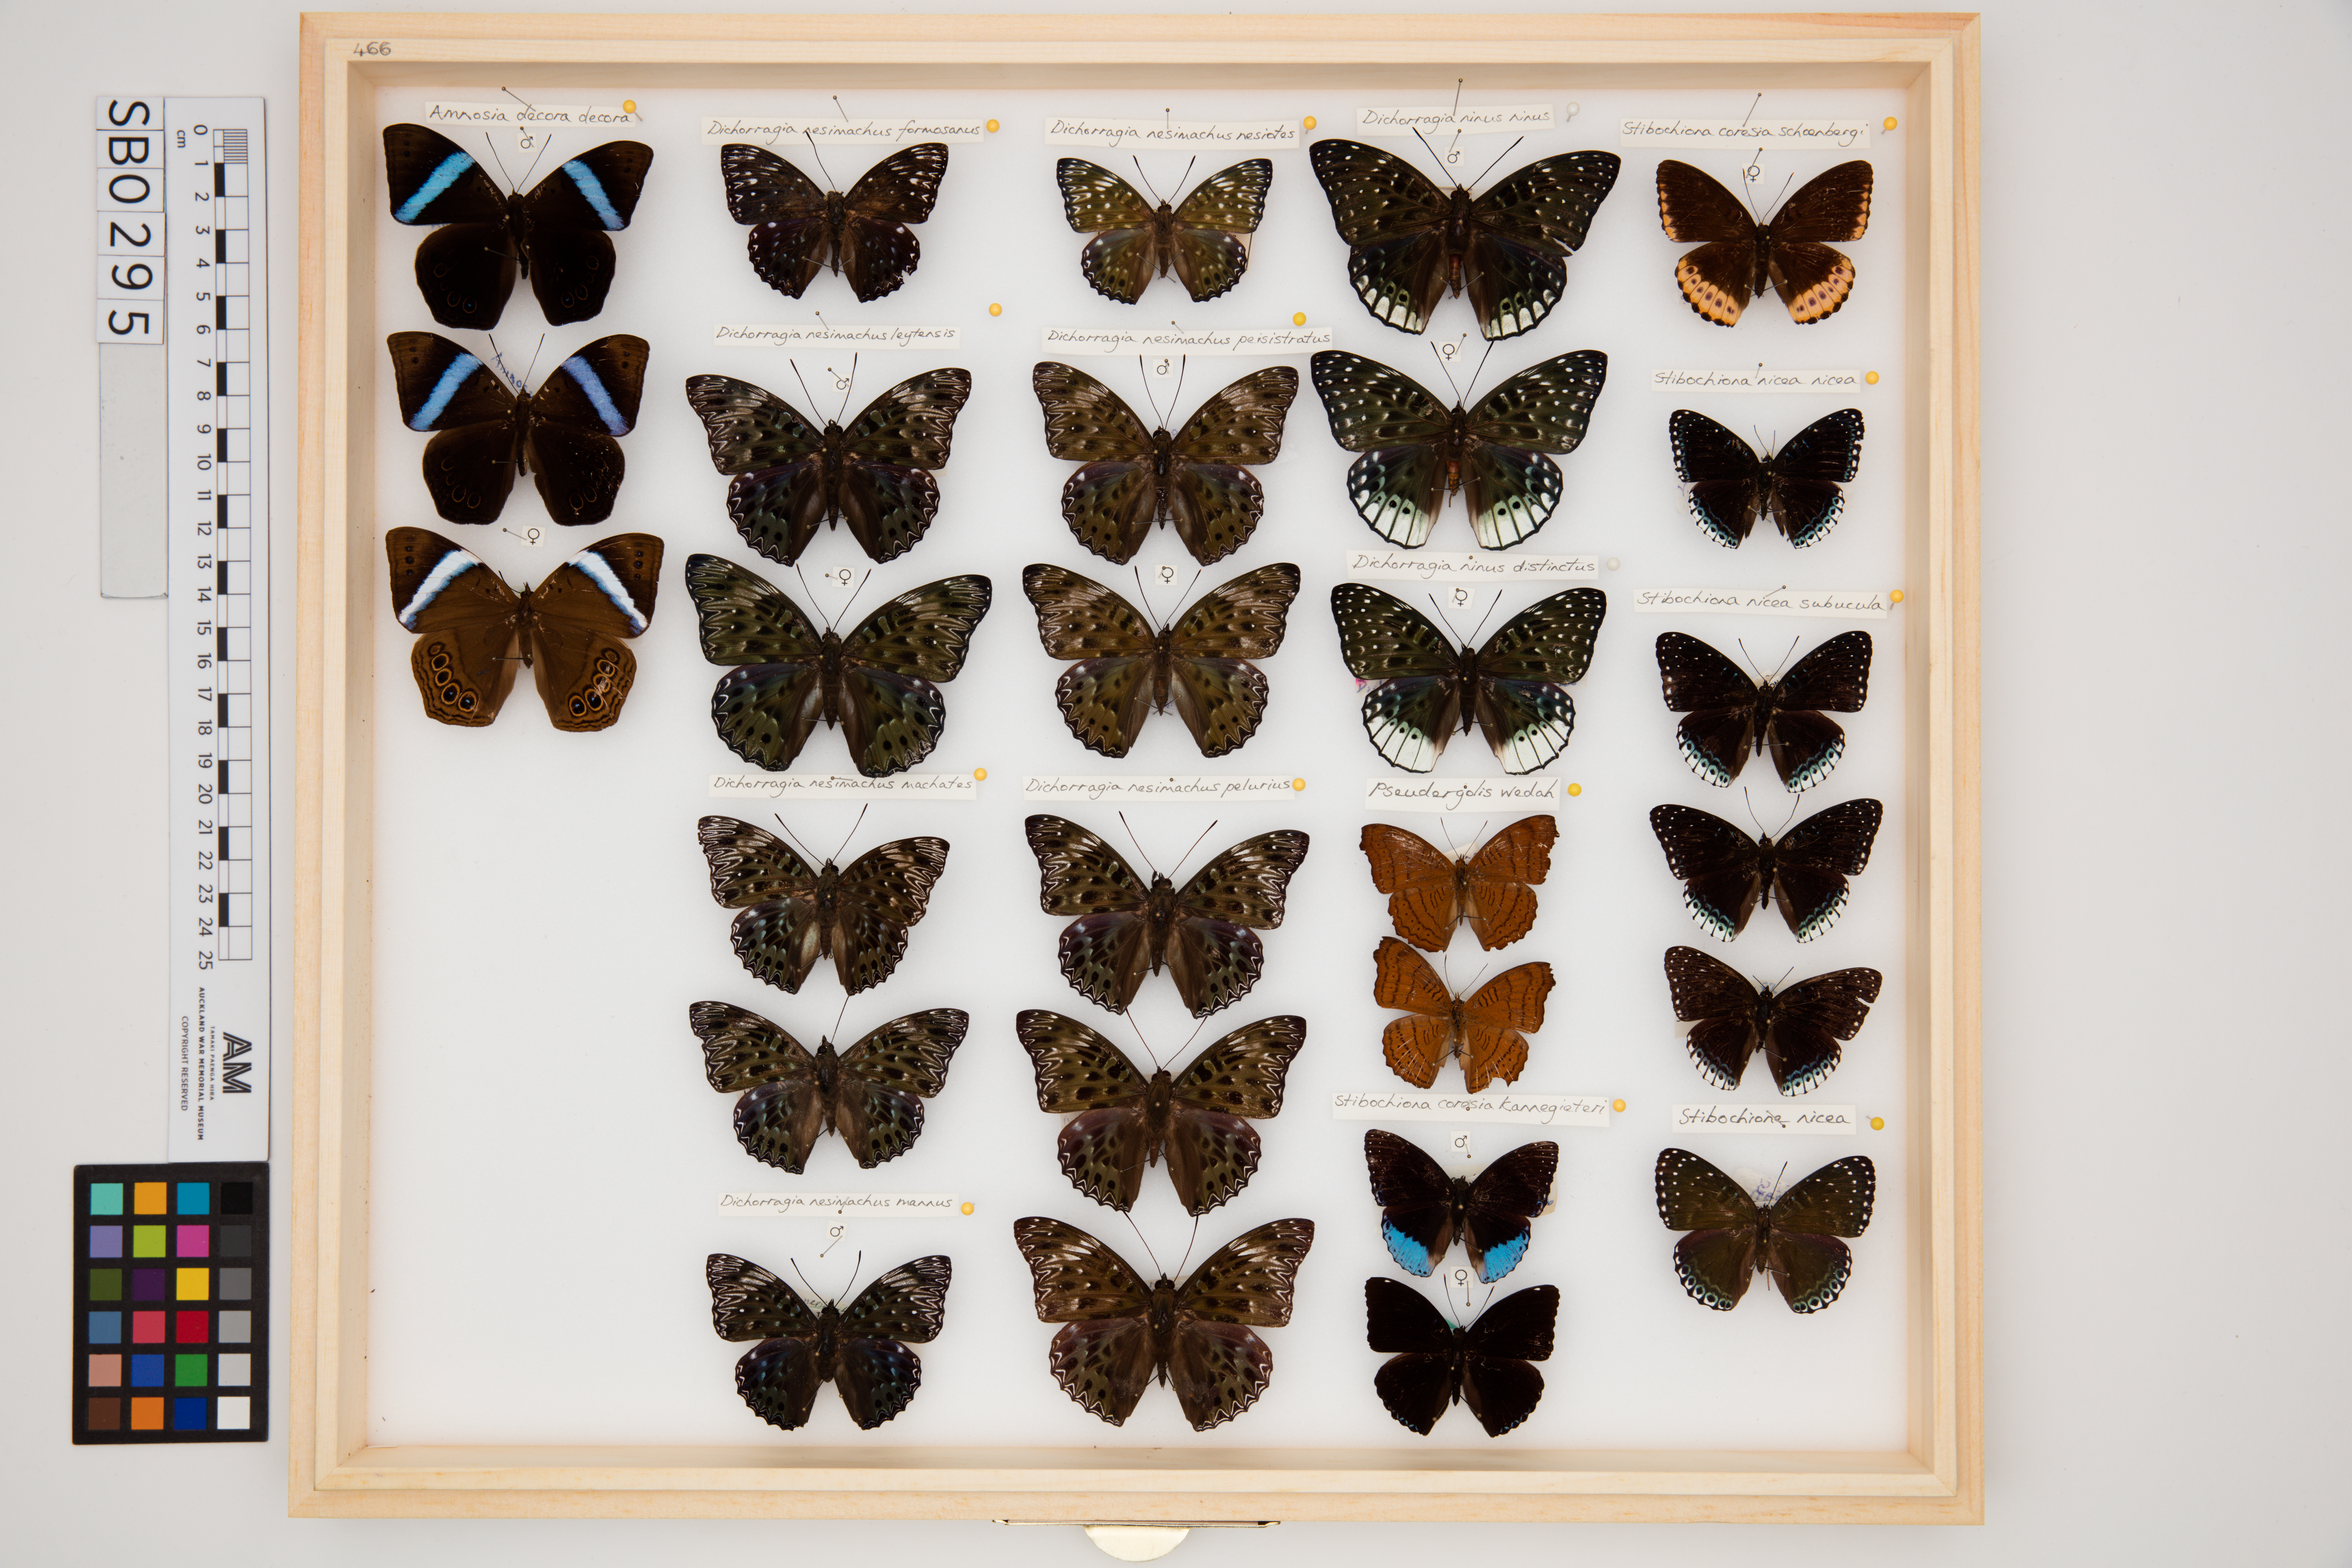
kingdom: Animalia
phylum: Arthropoda
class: Insecta
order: Lepidoptera
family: Nymphalidae
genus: Dichorragia
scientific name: Dichorragia ninus
